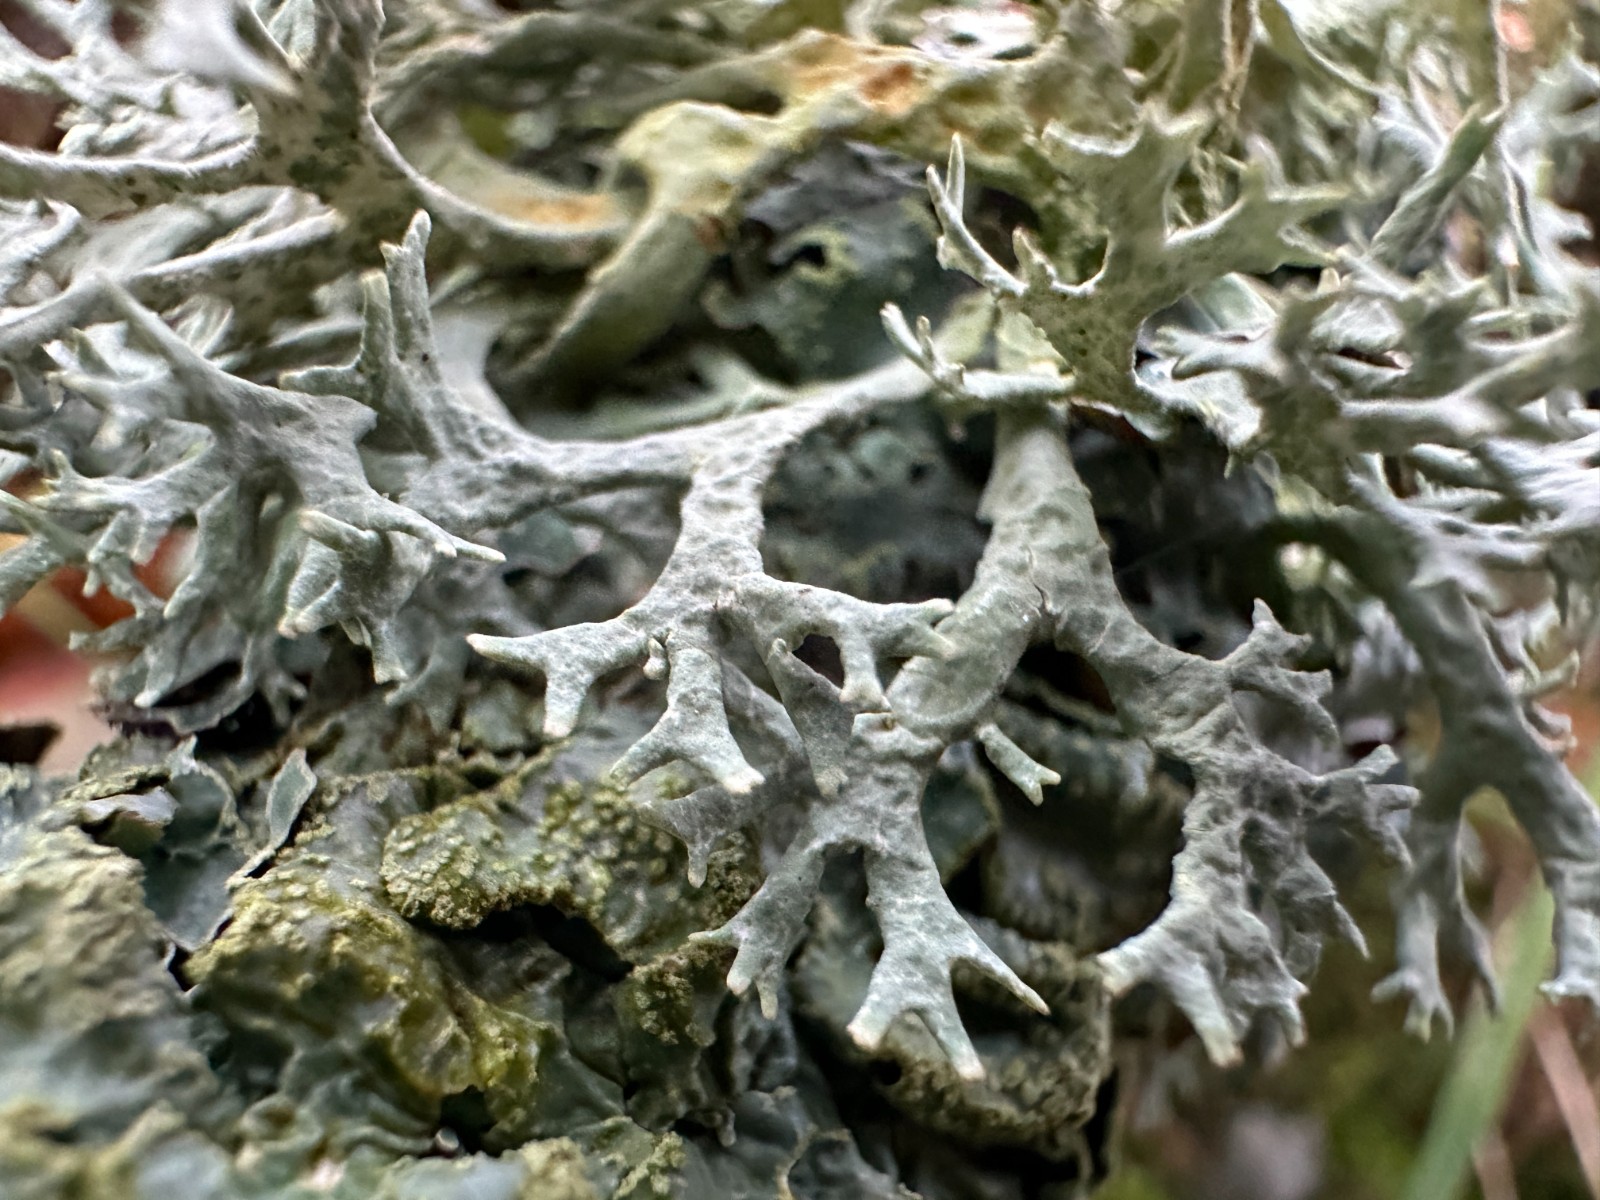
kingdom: Fungi
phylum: Ascomycota
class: Lecanoromycetes
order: Lecanorales
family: Parmeliaceae
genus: Evernia
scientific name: Evernia prunastri
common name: almindelig slåenlav
